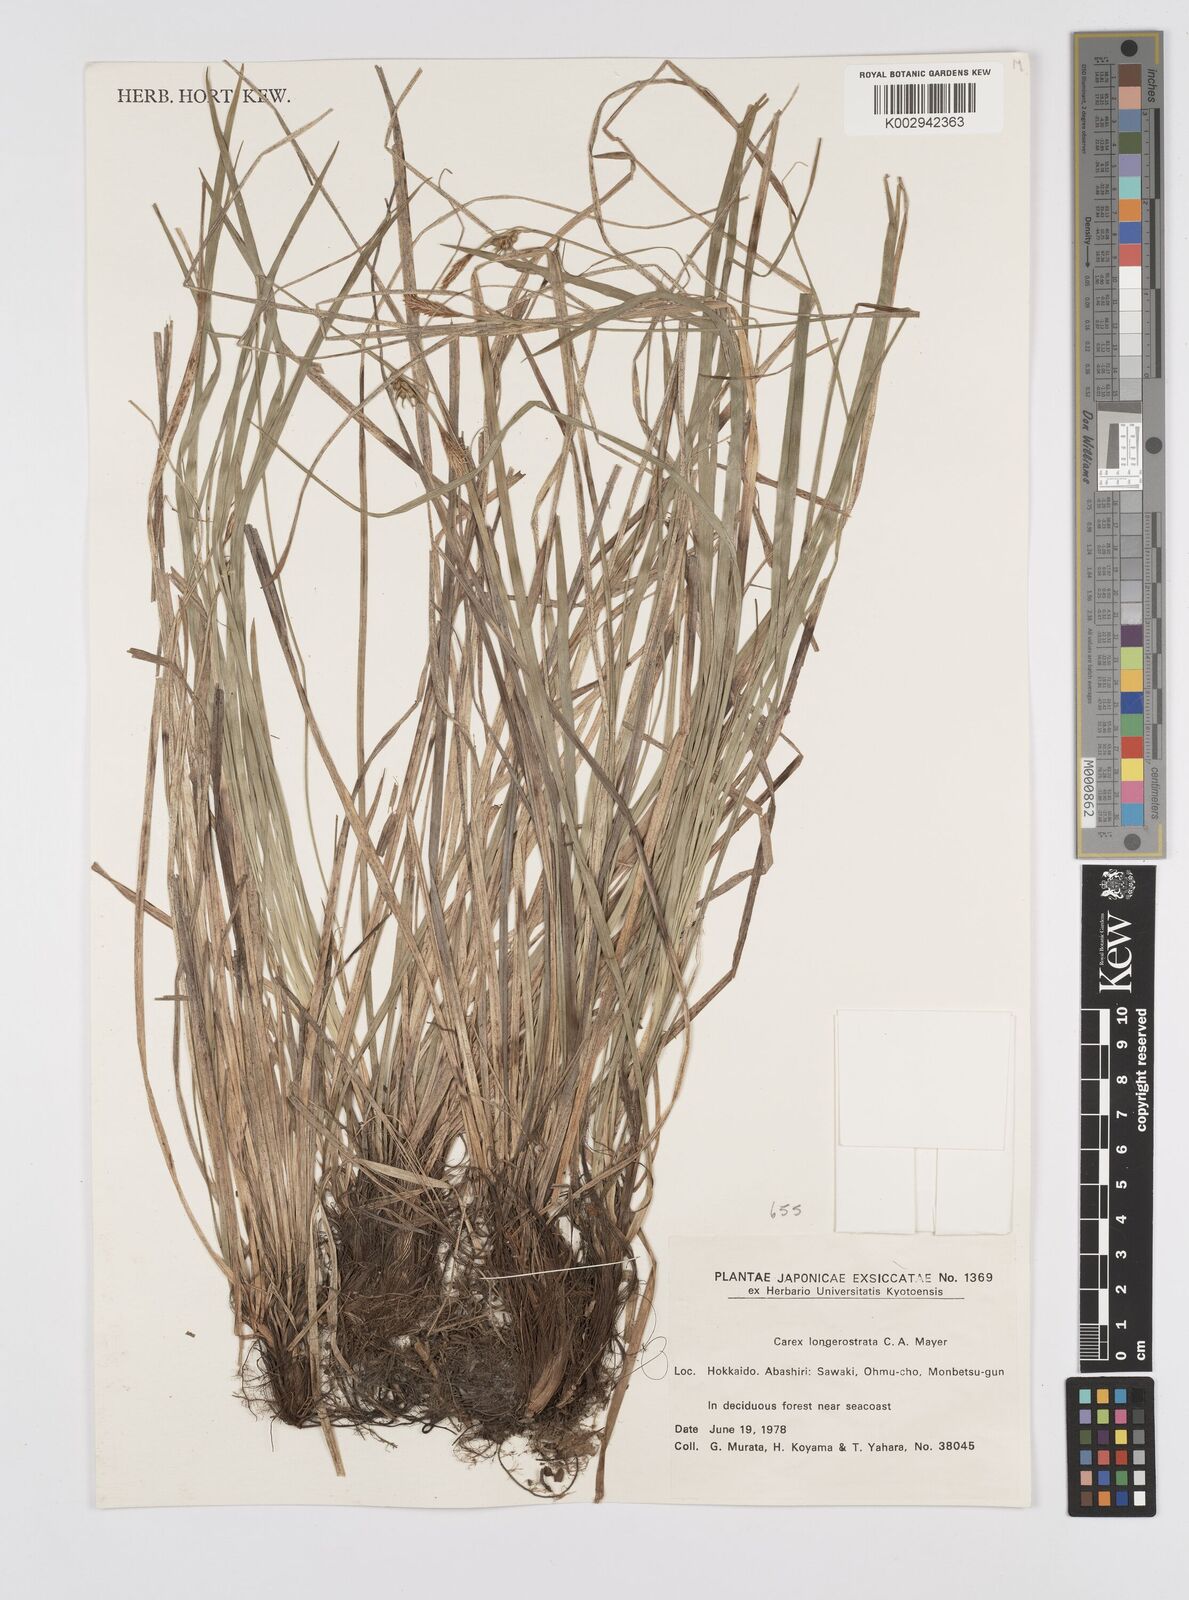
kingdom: Plantae
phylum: Tracheophyta
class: Liliopsida
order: Poales
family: Cyperaceae
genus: Carex
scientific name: Carex longerostrata
